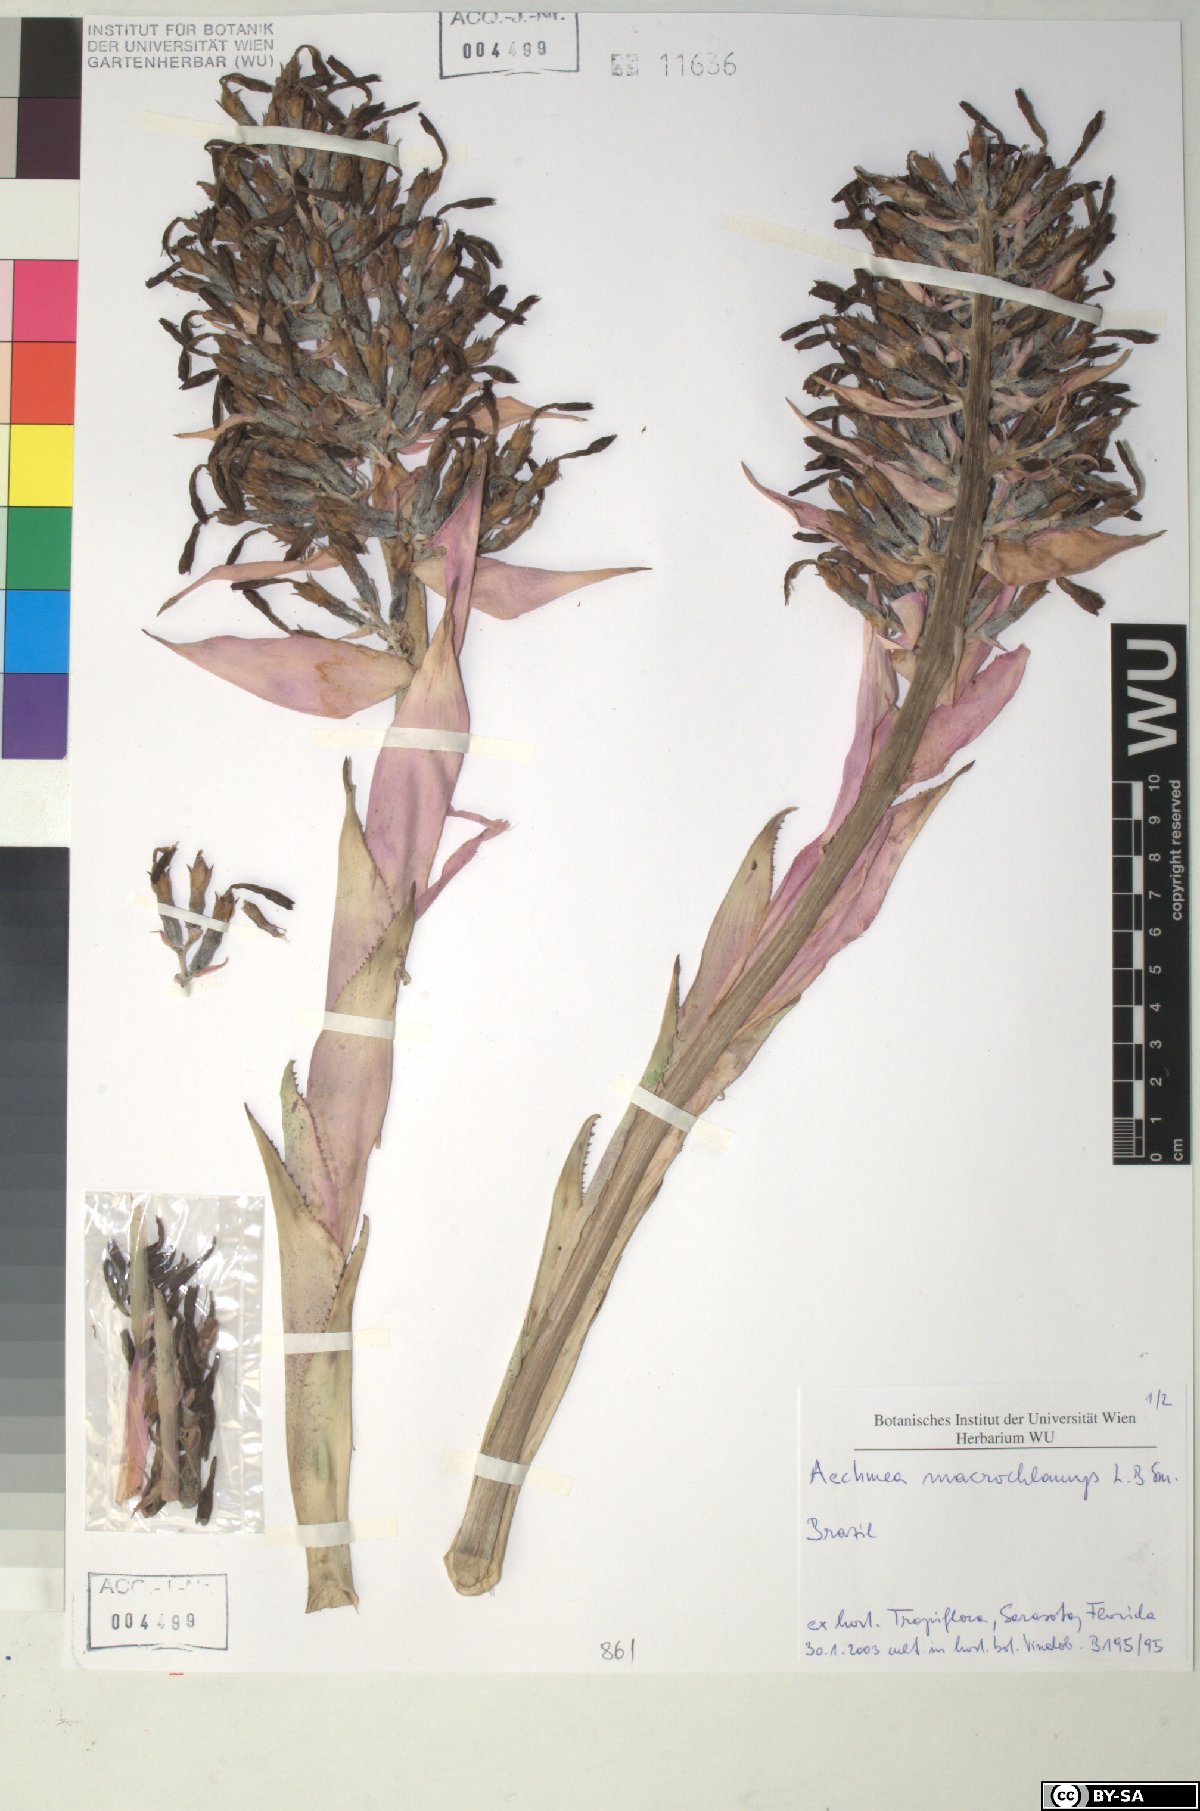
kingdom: Plantae
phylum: Tracheophyta
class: Liliopsida
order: Poales
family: Bromeliaceae
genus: Aechmea
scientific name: Aechmea macrochlamys
